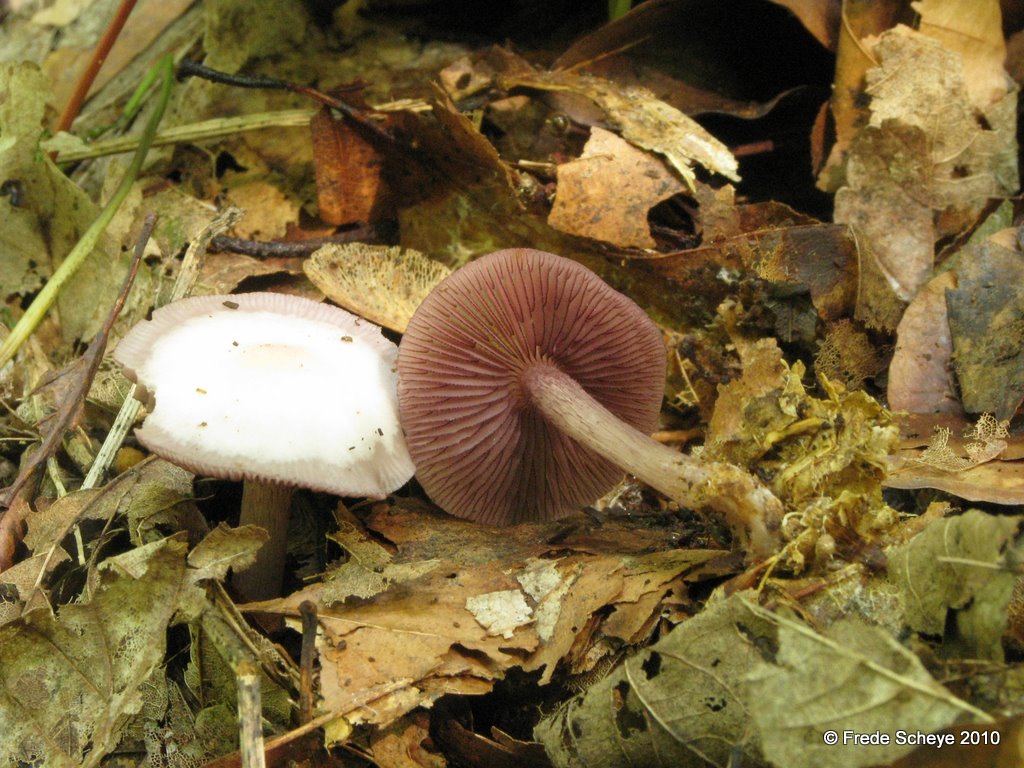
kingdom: Fungi
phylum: Basidiomycota
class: Agaricomycetes
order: Agaricales
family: Mycenaceae
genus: Mycena
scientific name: Mycena pelianthina
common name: mørkbladet huesvamp
